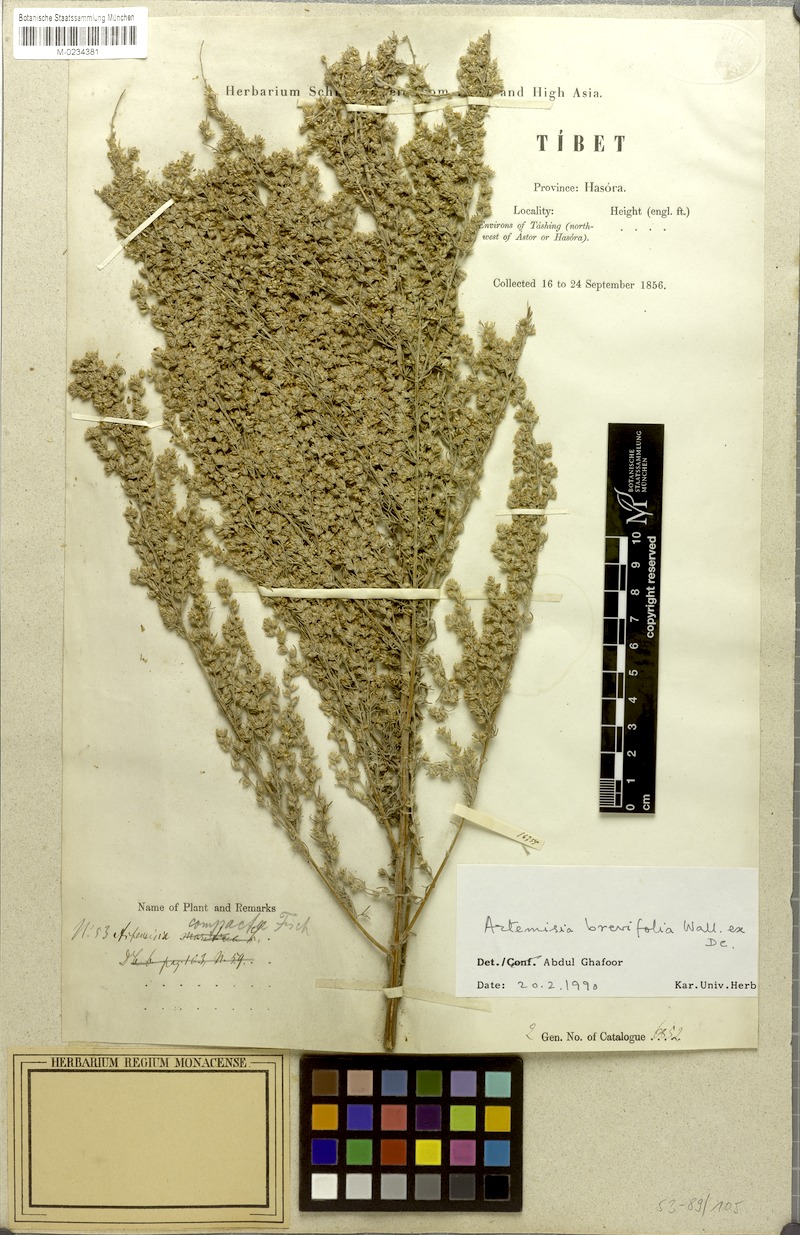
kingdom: Plantae
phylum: Tracheophyta
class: Magnoliopsida
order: Asterales
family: Asteraceae
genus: Artemisia
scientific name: Artemisia brevifolia
